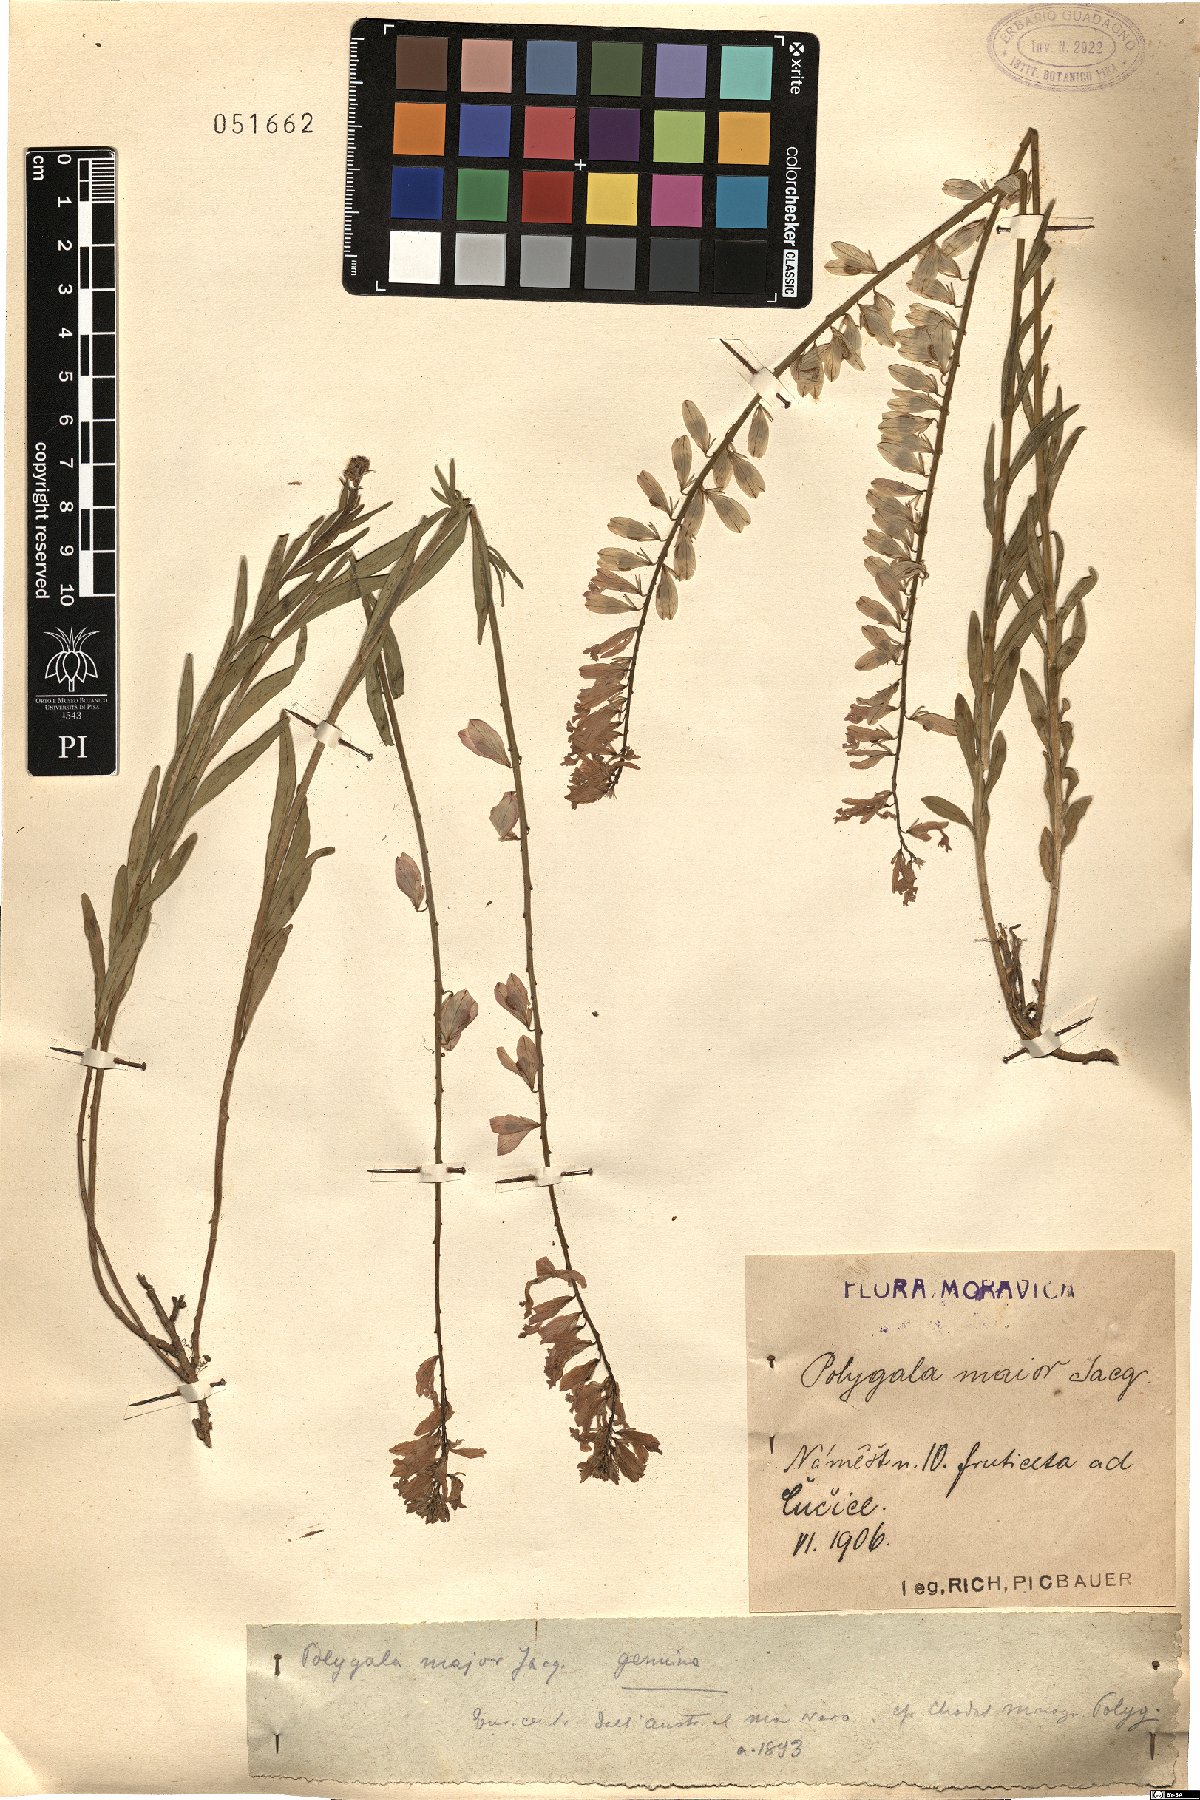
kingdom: Plantae
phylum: Tracheophyta
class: Magnoliopsida
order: Fabales
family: Polygalaceae
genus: Polygala
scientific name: Polygala major
